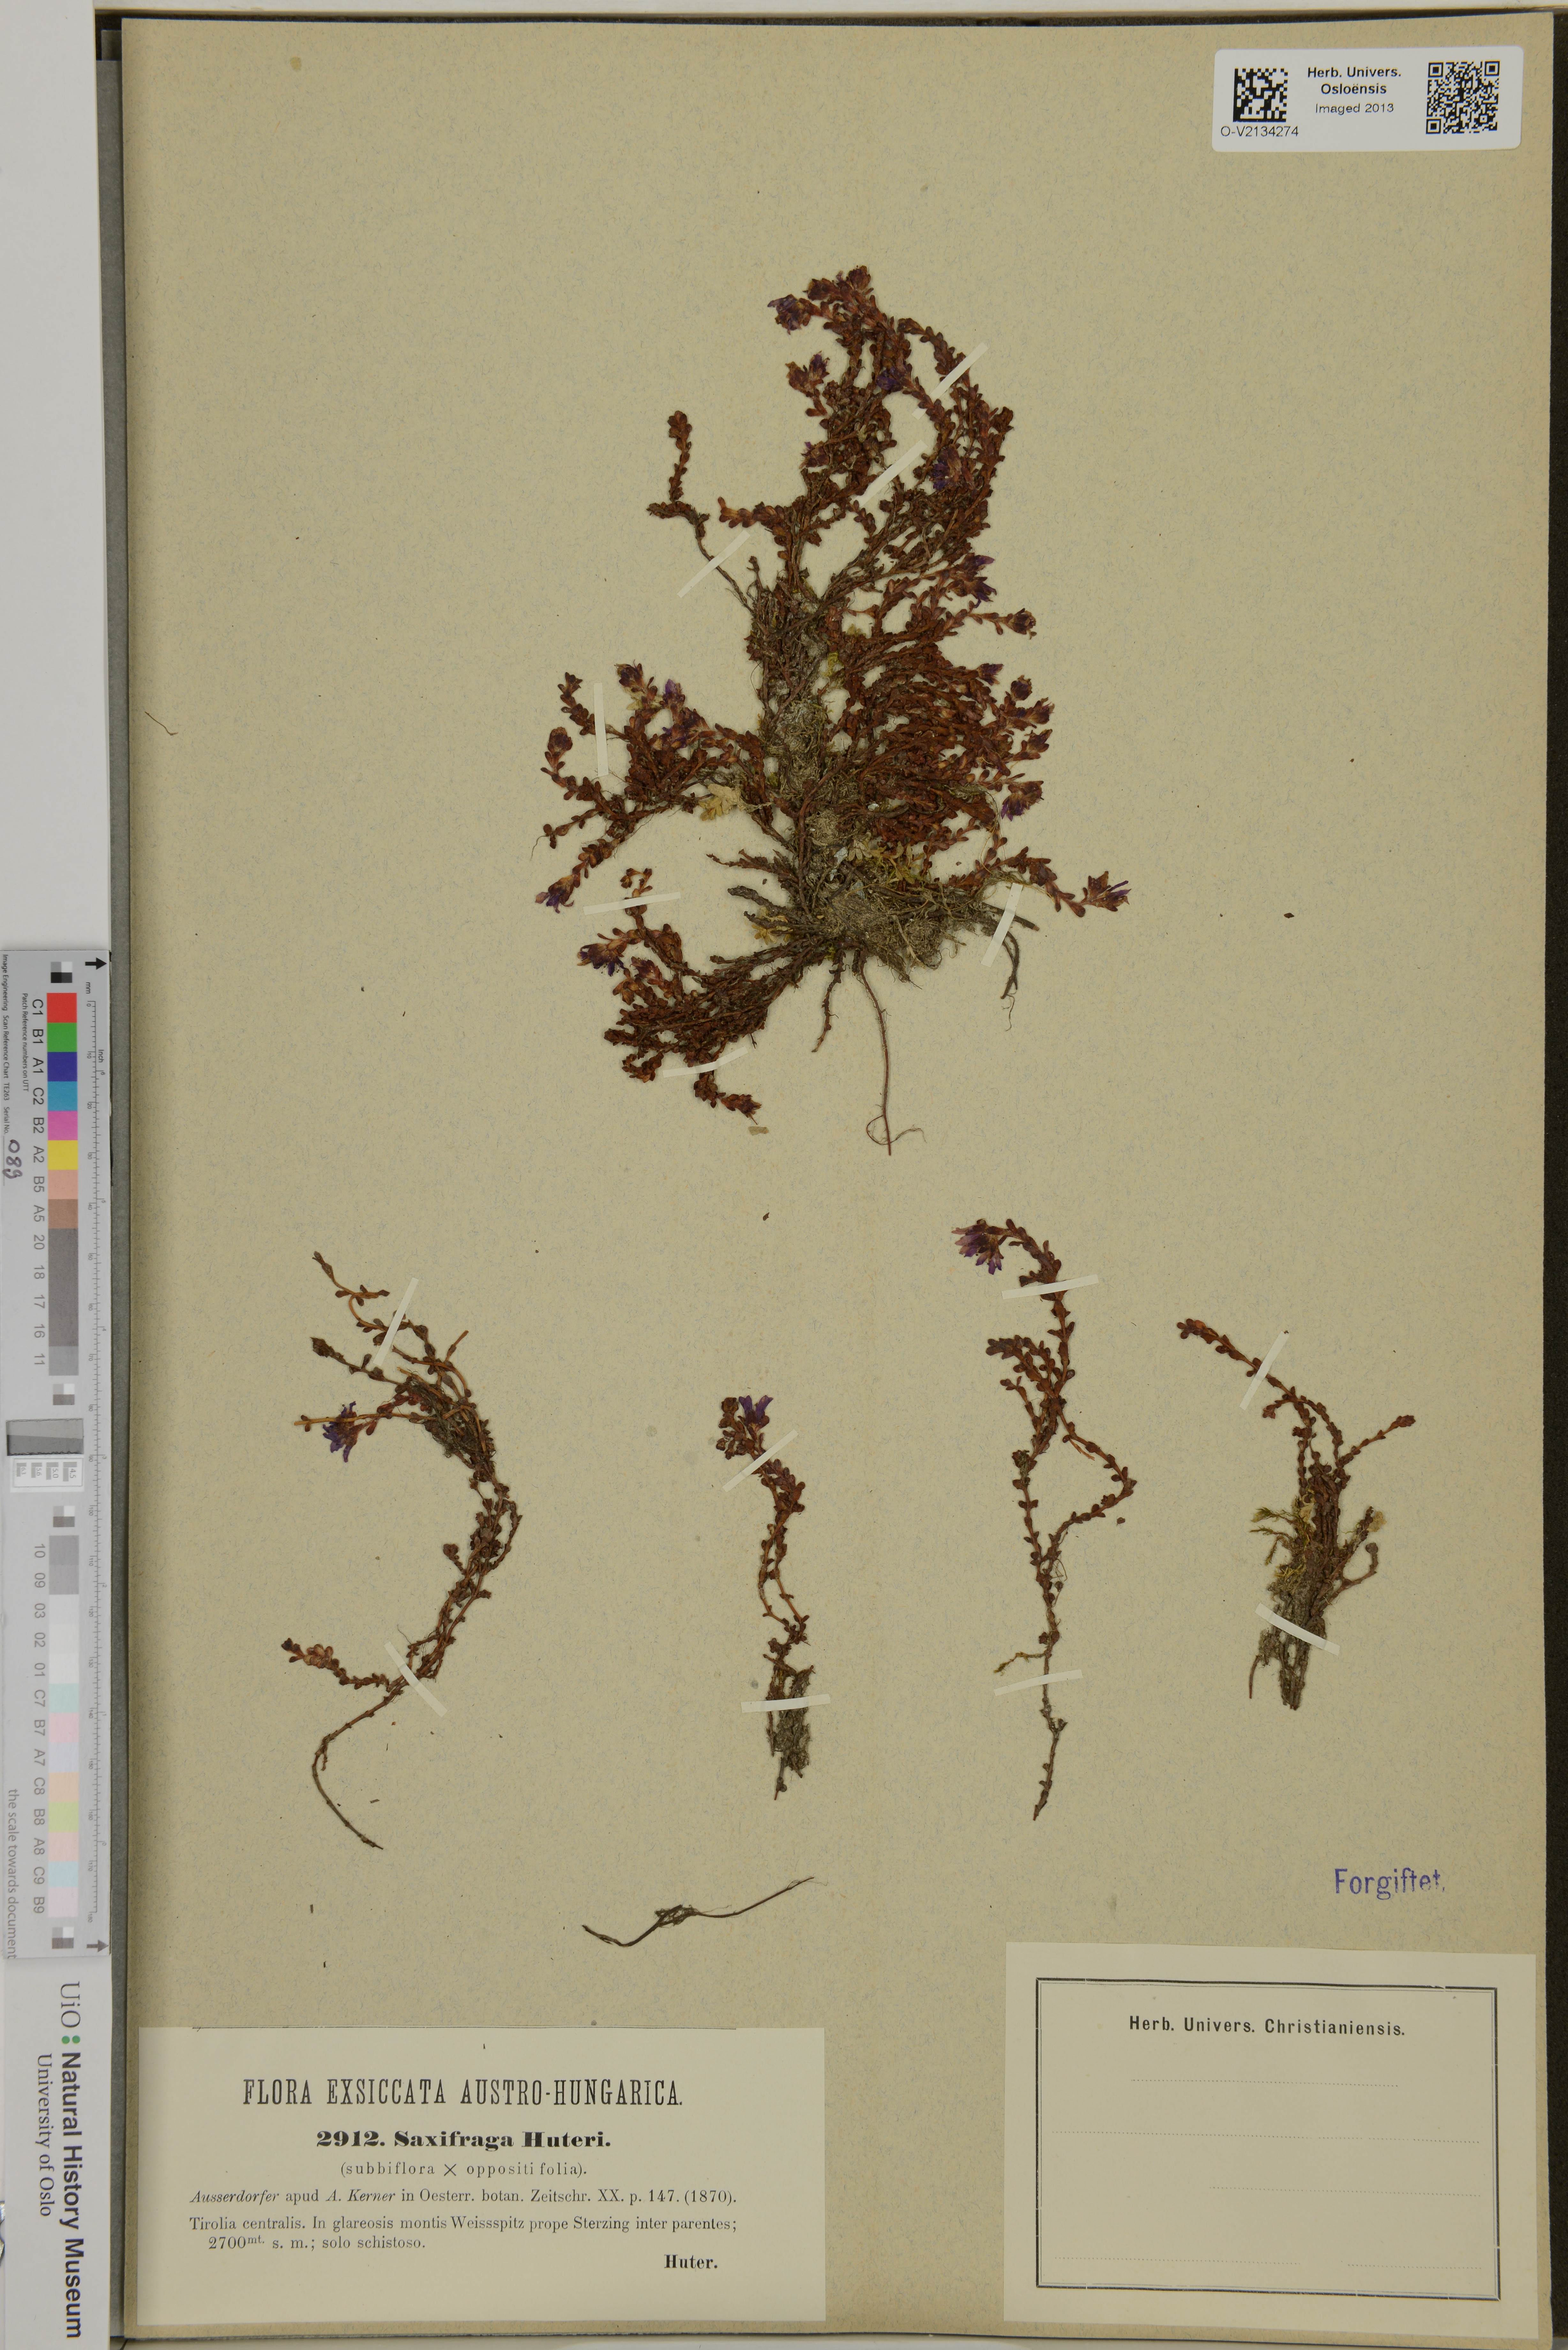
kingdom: Plantae
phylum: Tracheophyta
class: Magnoliopsida
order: Saxifragales
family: Saxifragaceae
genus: Saxifraga
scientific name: Saxifraga
